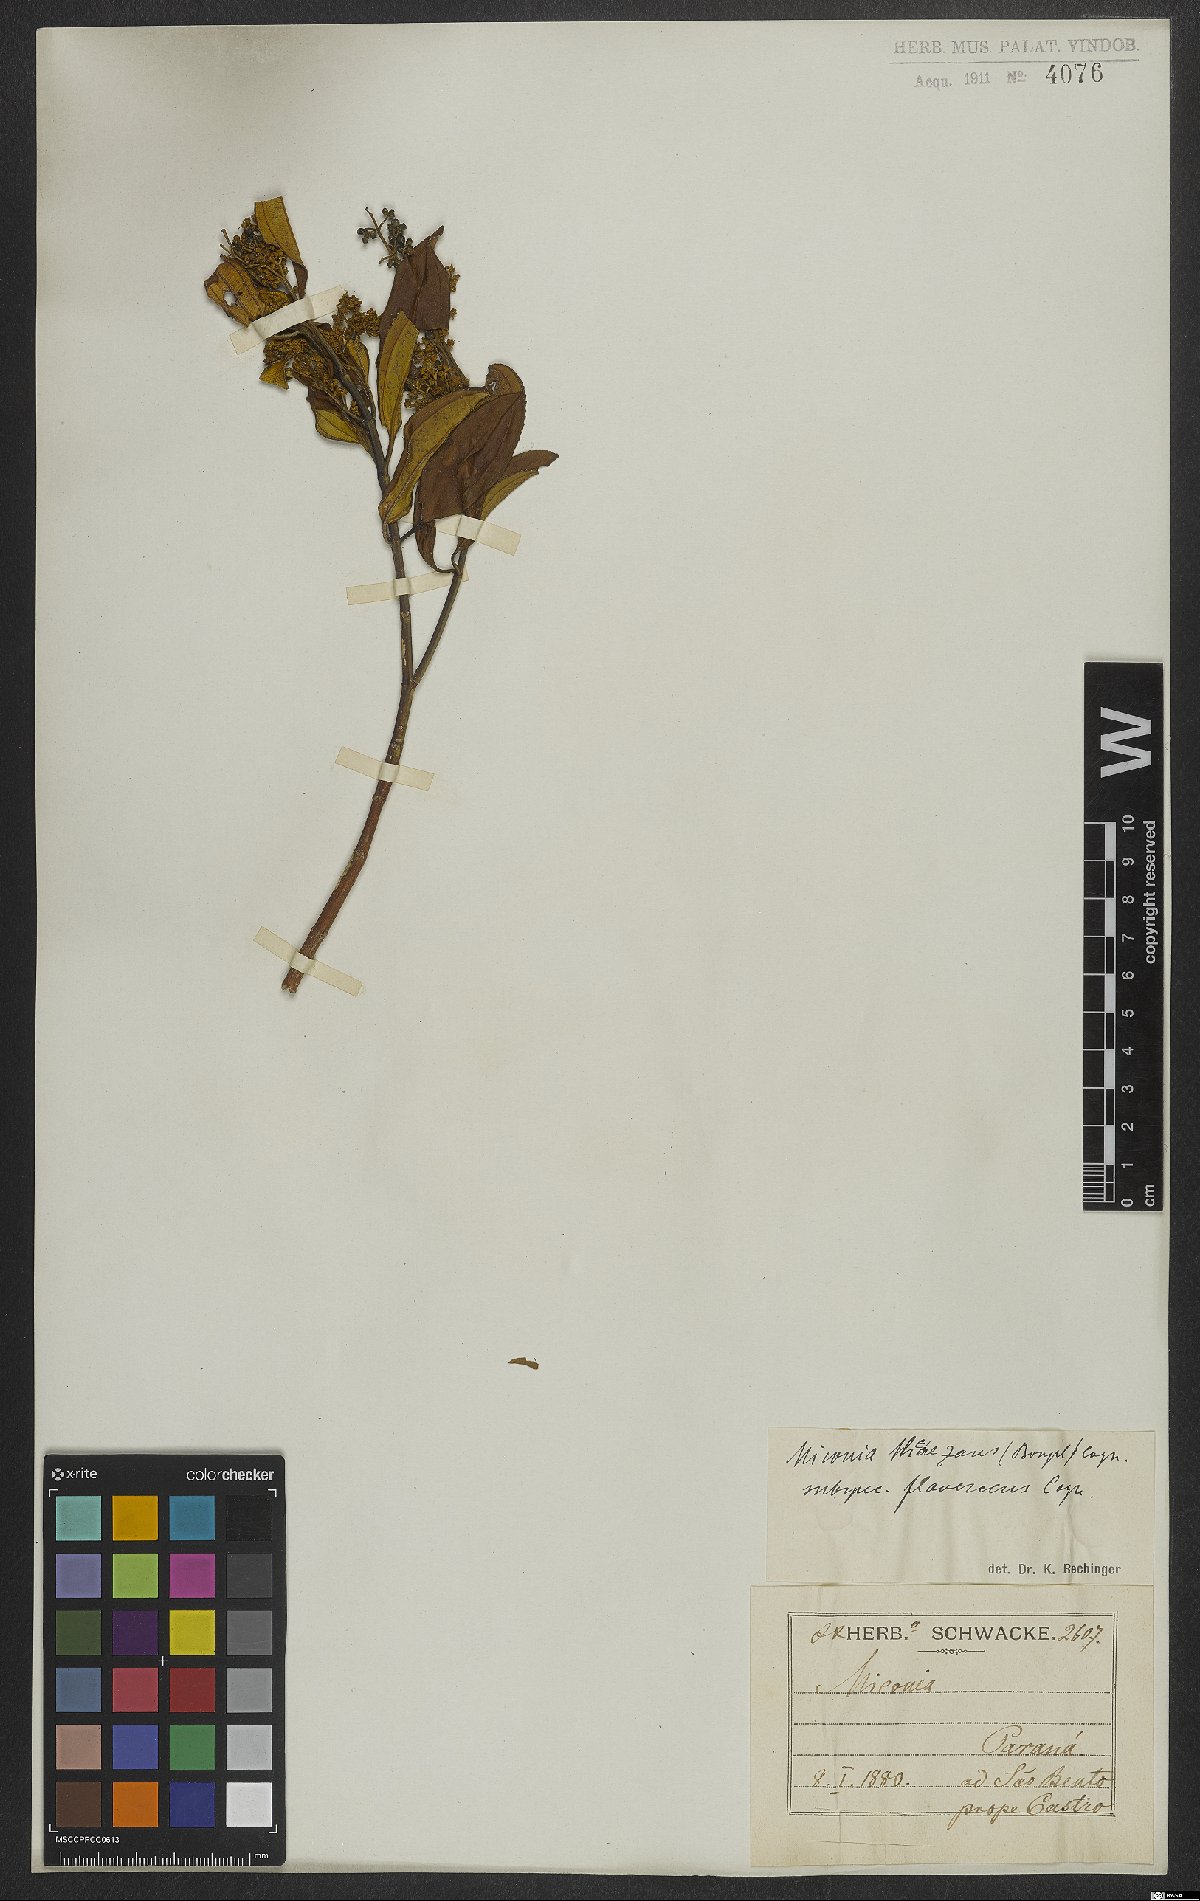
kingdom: Plantae
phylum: Tracheophyta
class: Magnoliopsida
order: Myrtales
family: Melastomataceae
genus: Miconia
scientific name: Miconia theizans
